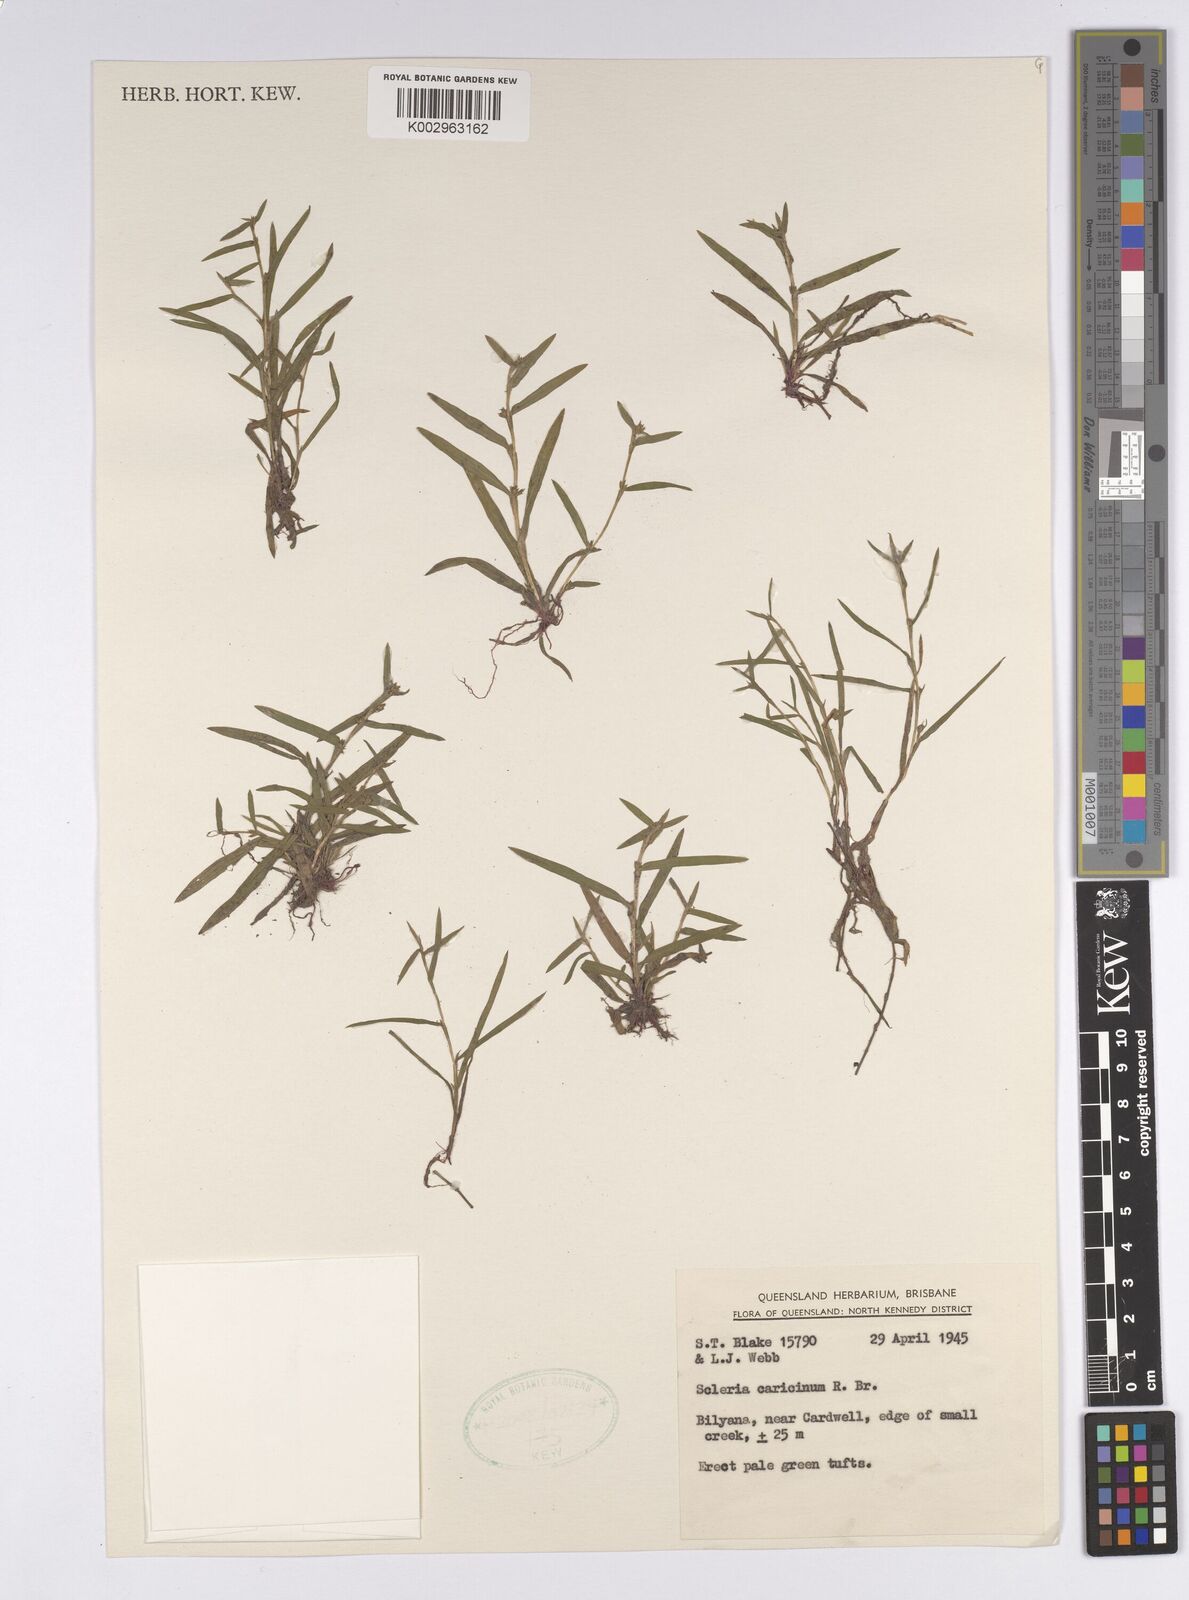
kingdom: Plantae
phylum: Tracheophyta
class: Liliopsida
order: Poales
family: Cyperaceae
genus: Diplacrum
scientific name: Diplacrum caricinum
